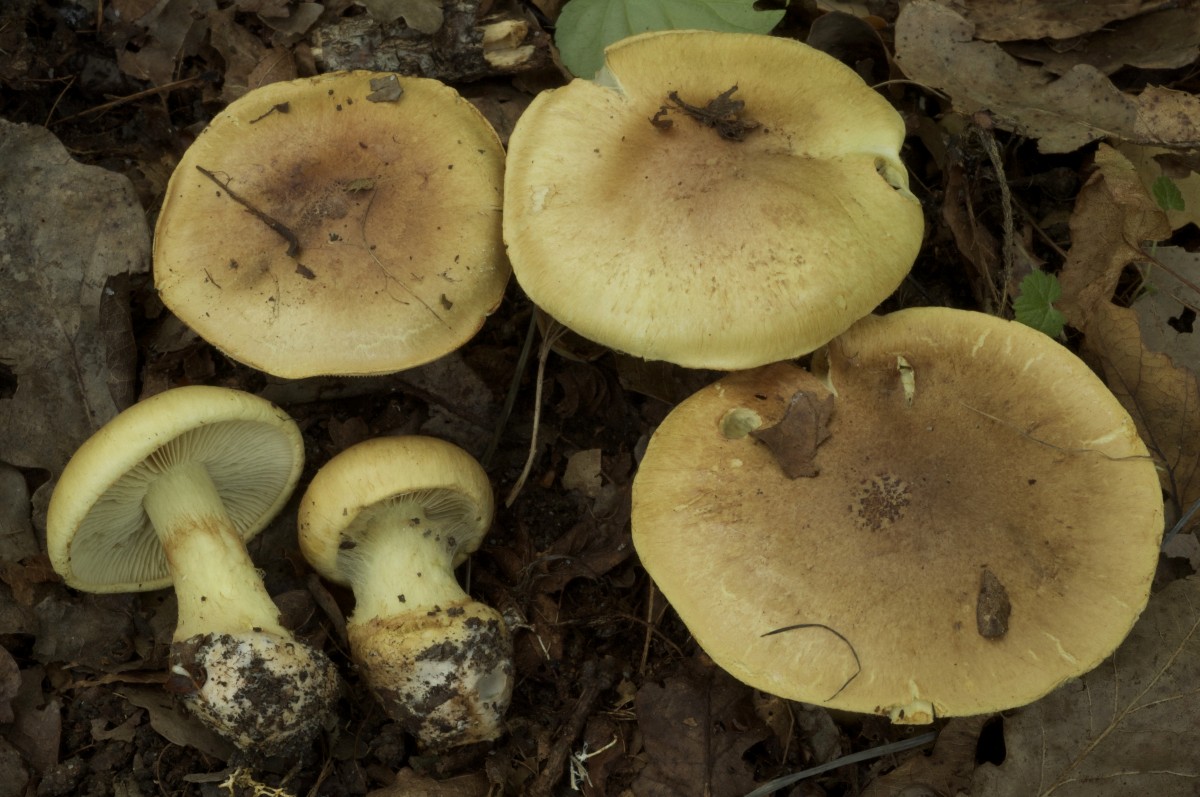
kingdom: Fungi
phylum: Basidiomycota
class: Agaricomycetes
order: Agaricales
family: Cortinariaceae
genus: Phlegmacium
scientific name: Phlegmacium stjernegaardii
